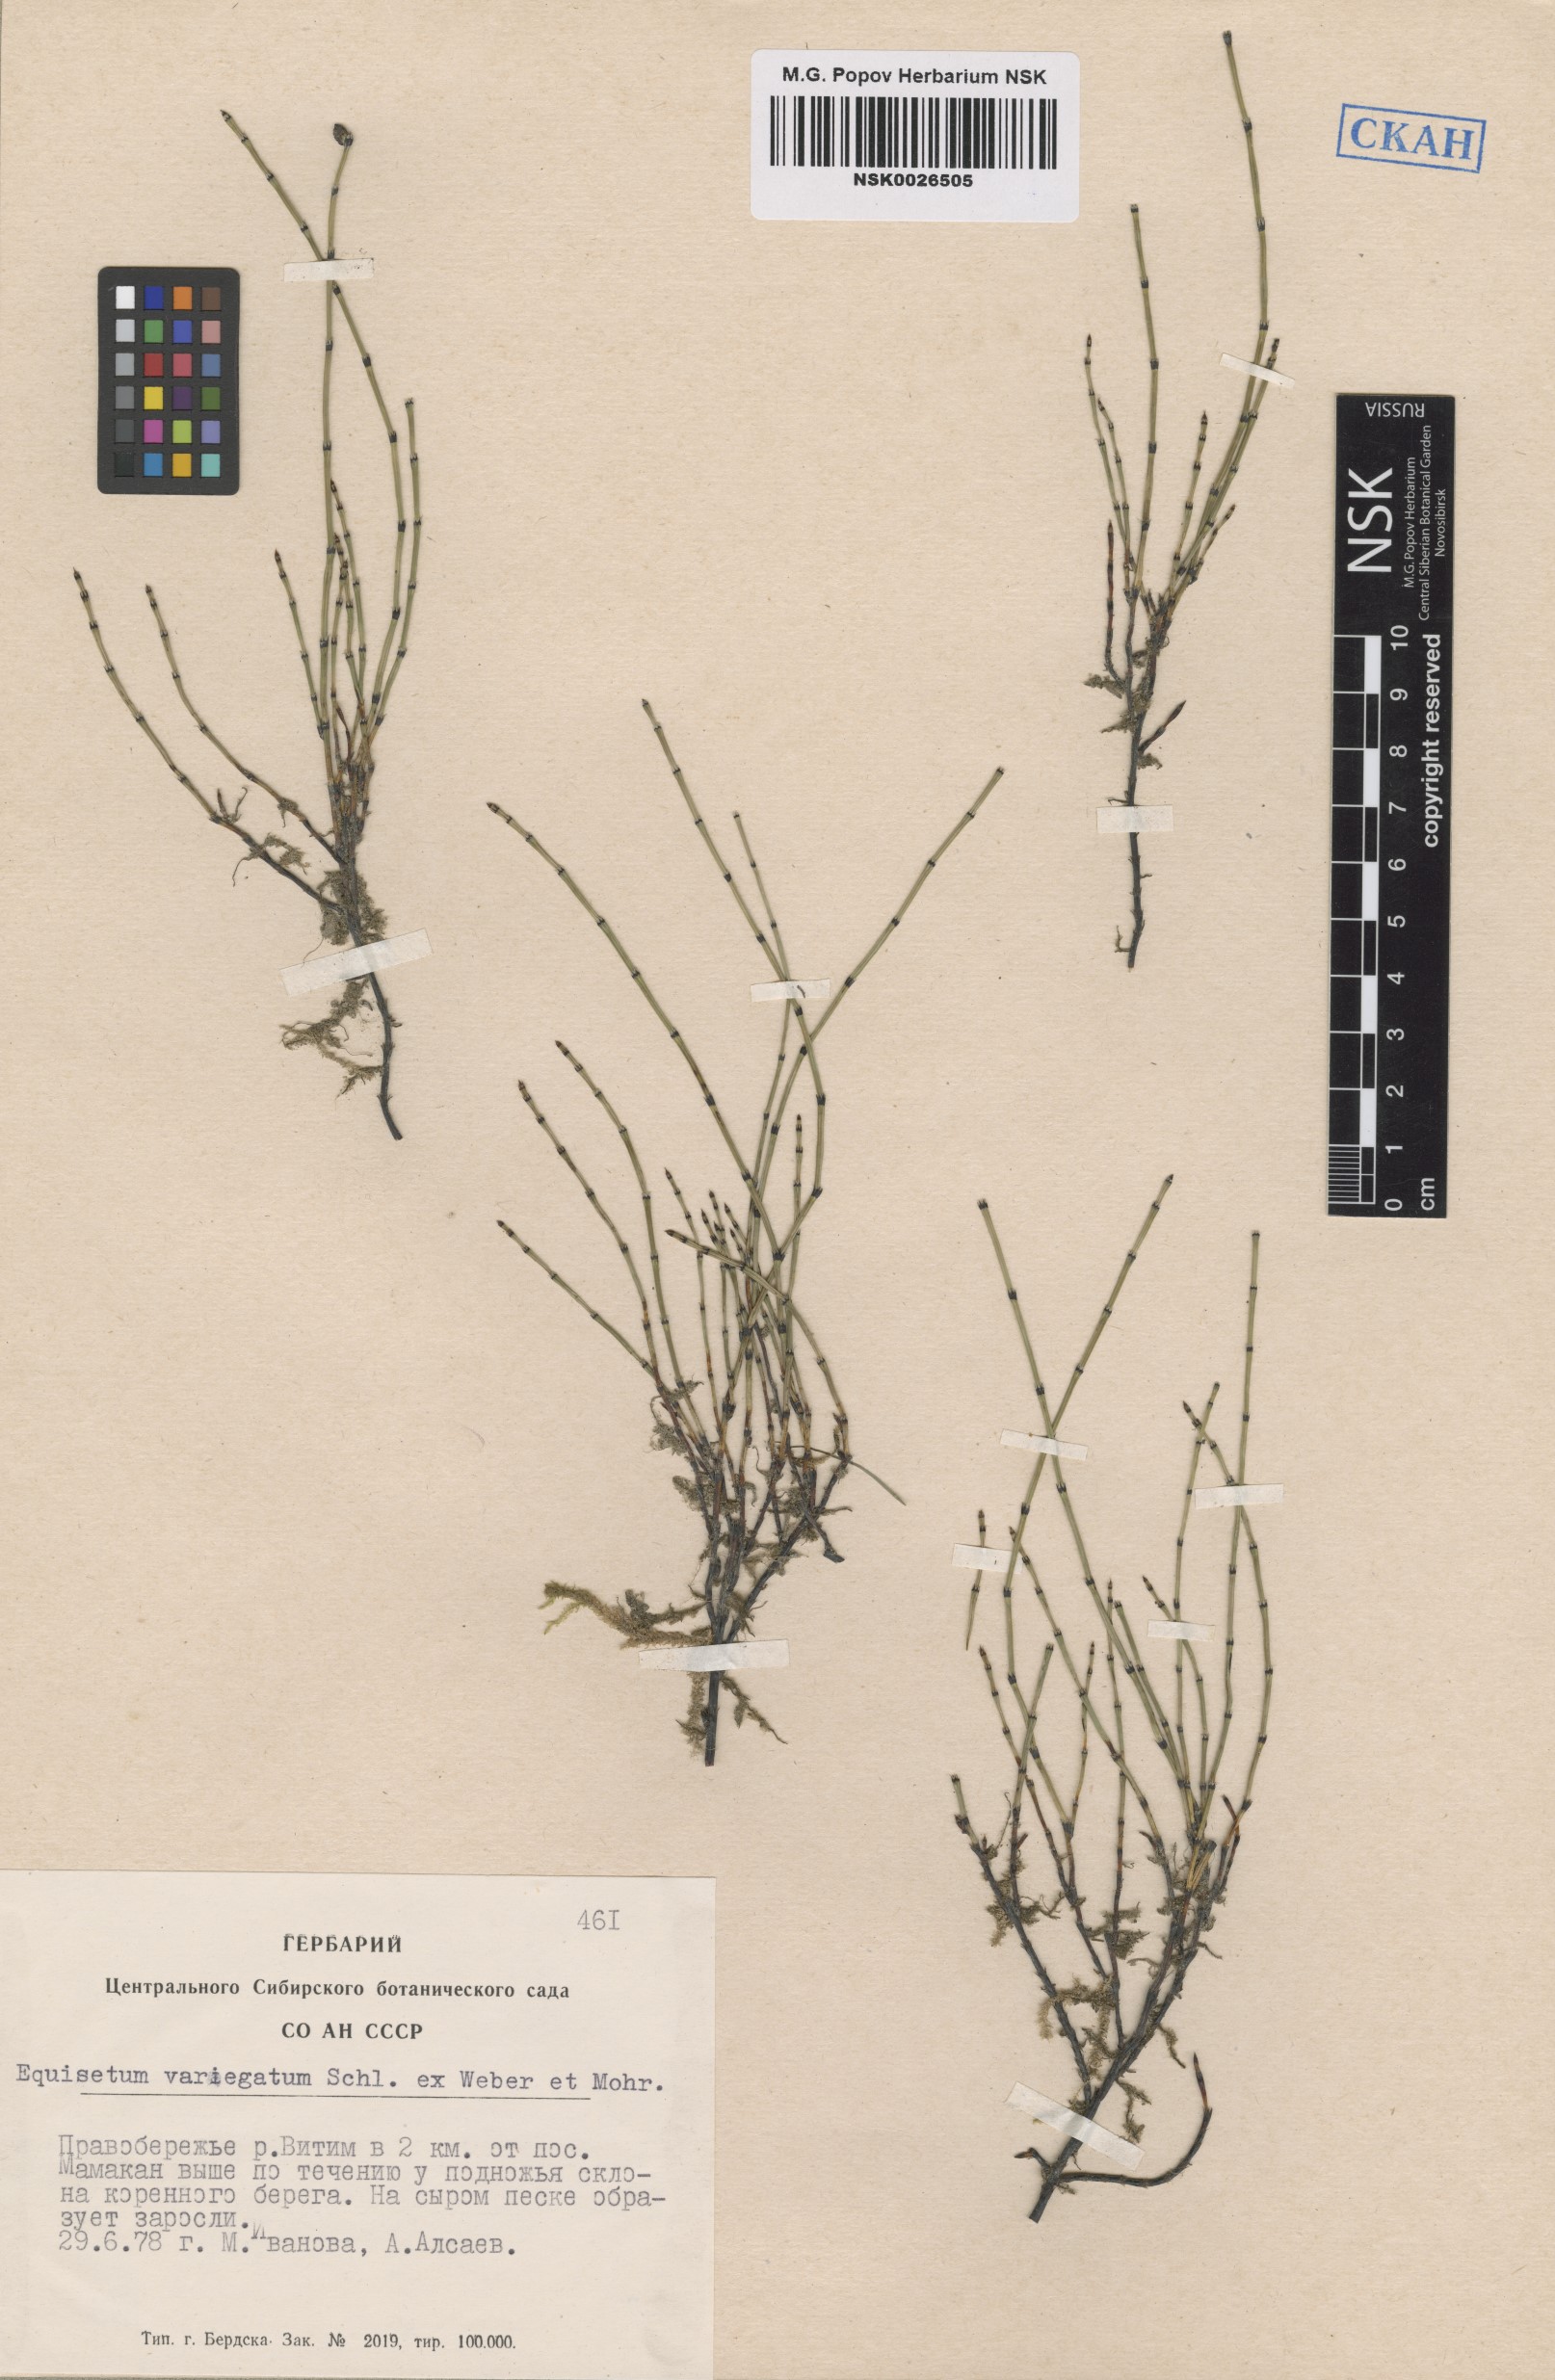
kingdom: Plantae
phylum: Tracheophyta
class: Polypodiopsida
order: Equisetales
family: Equisetaceae
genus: Equisetum
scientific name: Equisetum variegatum
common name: Variegated horsetail
